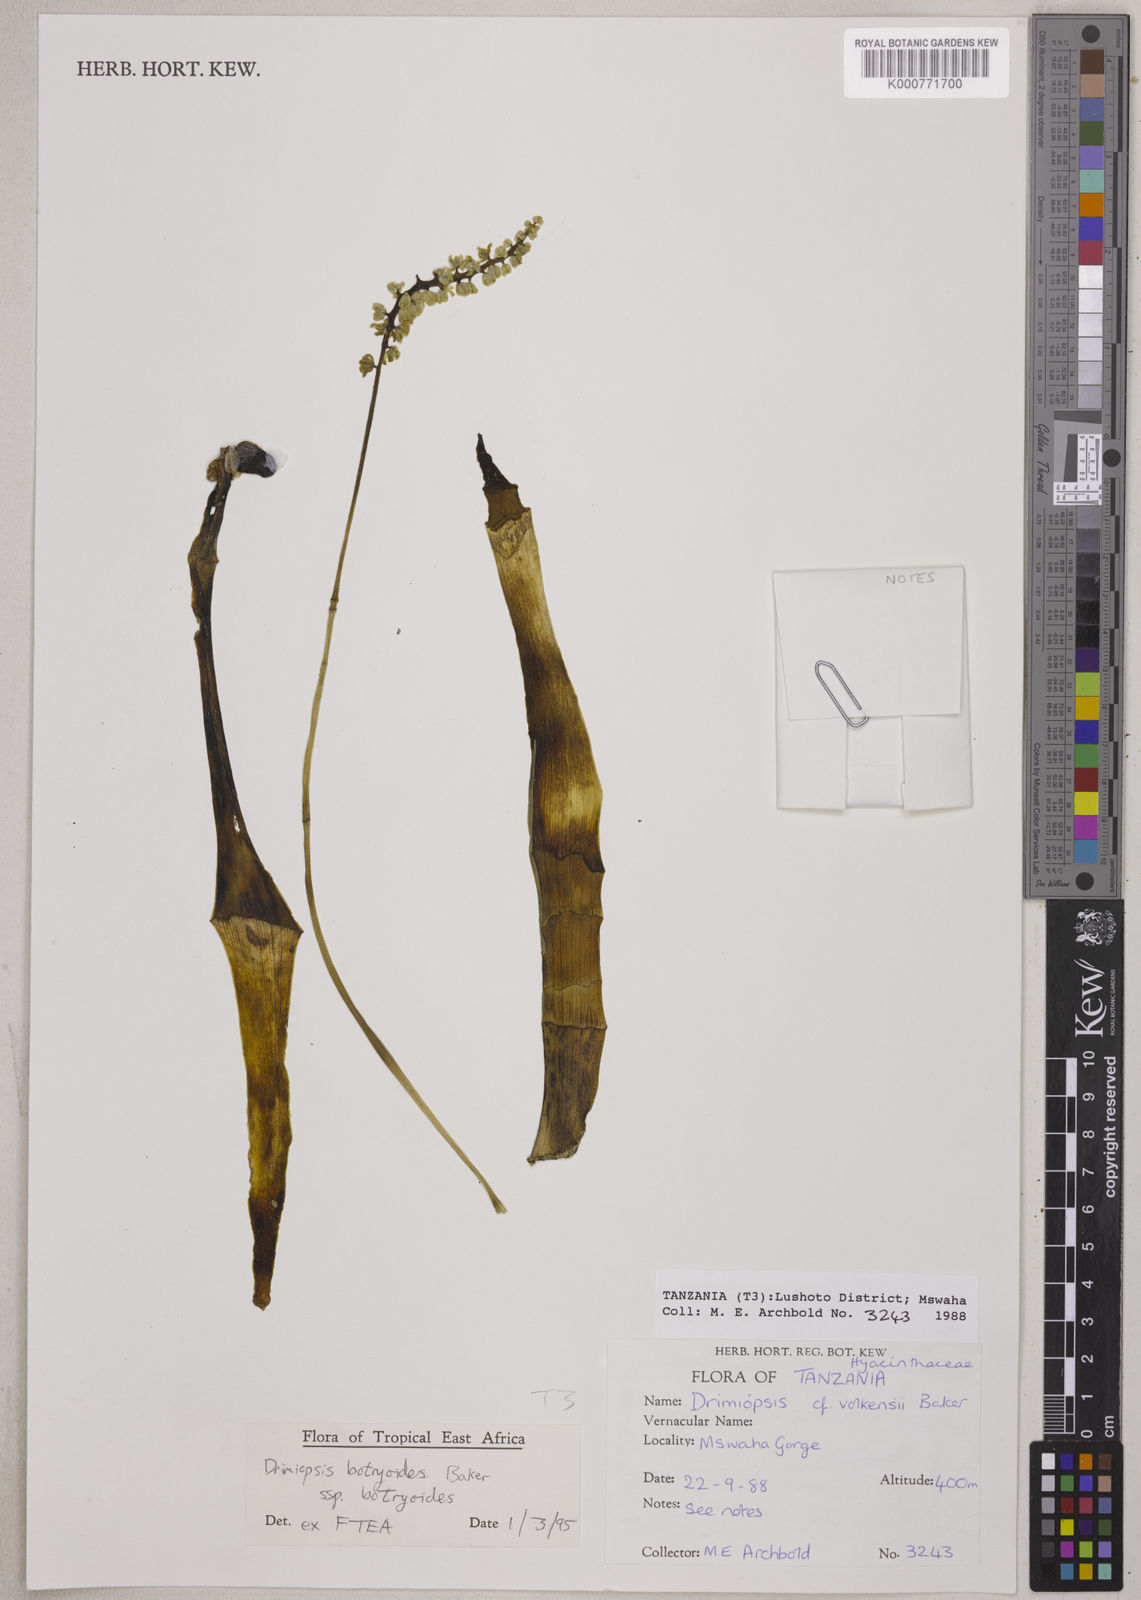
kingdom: Plantae
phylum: Tracheophyta
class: Liliopsida
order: Asparagales
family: Asparagaceae
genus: Drimiopsis
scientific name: Drimiopsis botryoides
